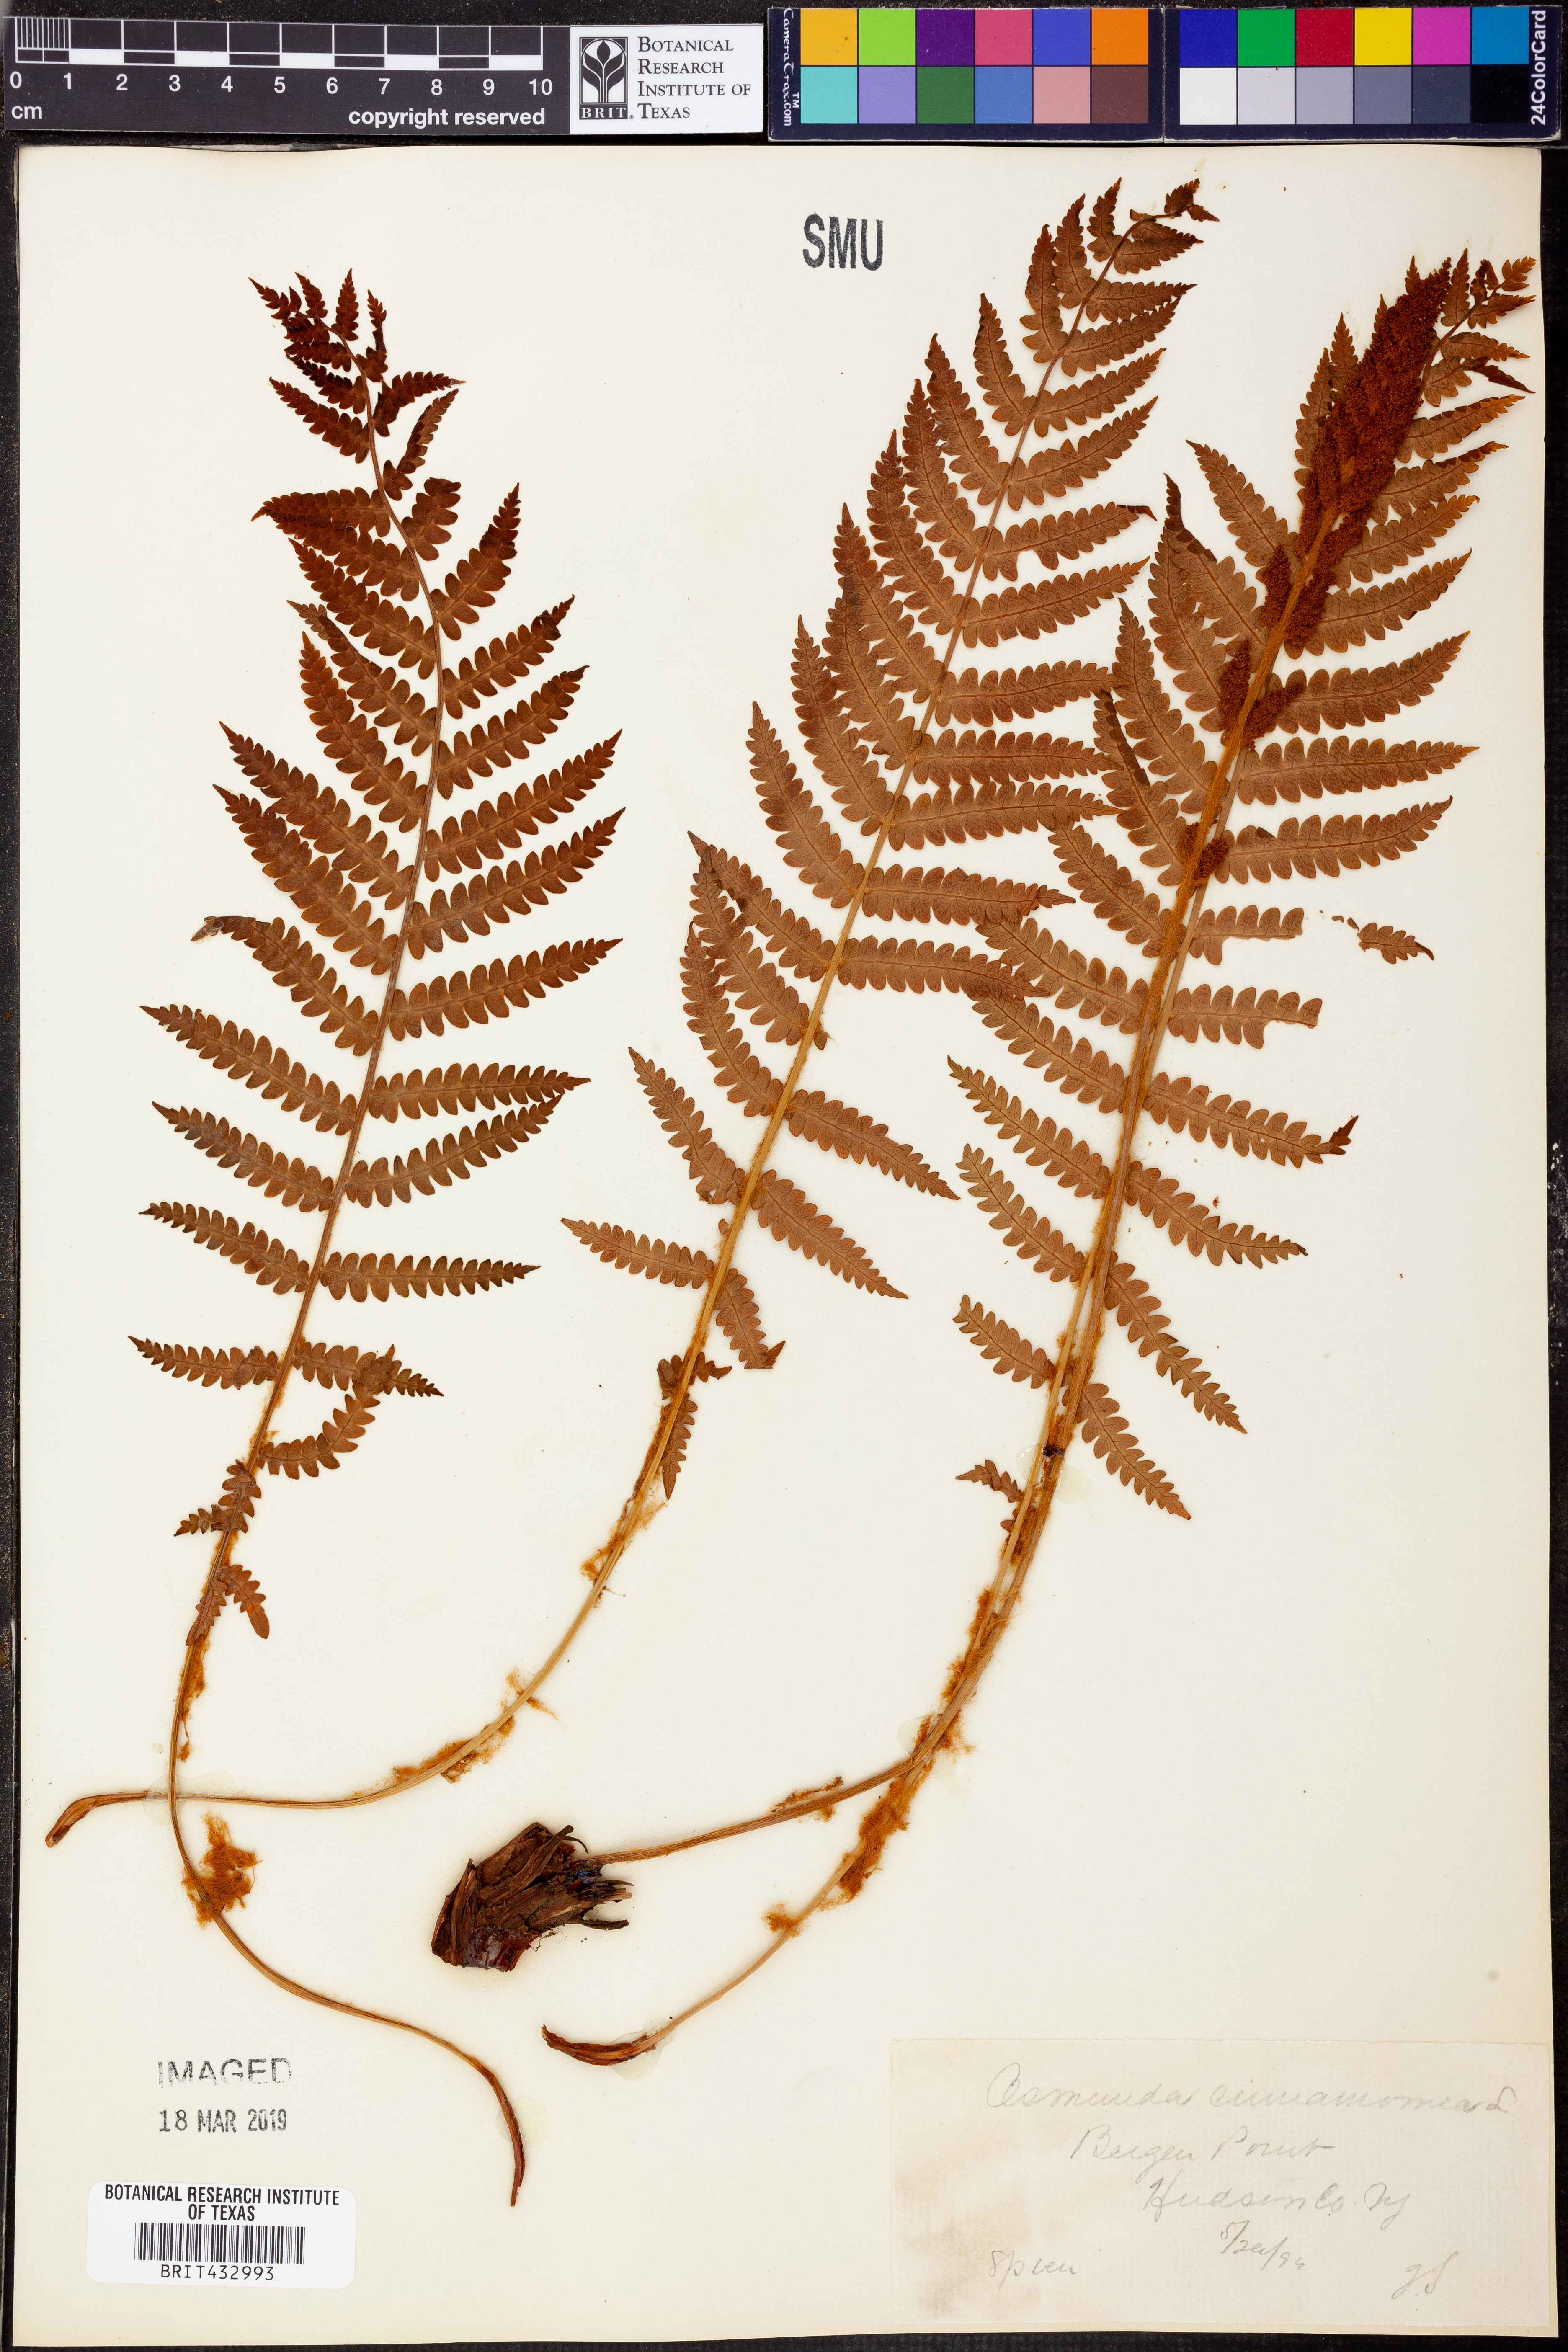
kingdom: Plantae
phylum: Tracheophyta
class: Polypodiopsida
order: Osmundales
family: Osmundaceae
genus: Osmundastrum
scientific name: Osmundastrum cinnamomeum
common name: Cinnamon fern
